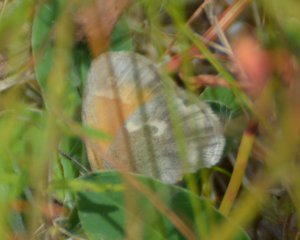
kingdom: Animalia
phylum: Arthropoda
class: Insecta
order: Lepidoptera
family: Nymphalidae
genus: Coenonympha
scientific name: Coenonympha tullia
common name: Large Heath
